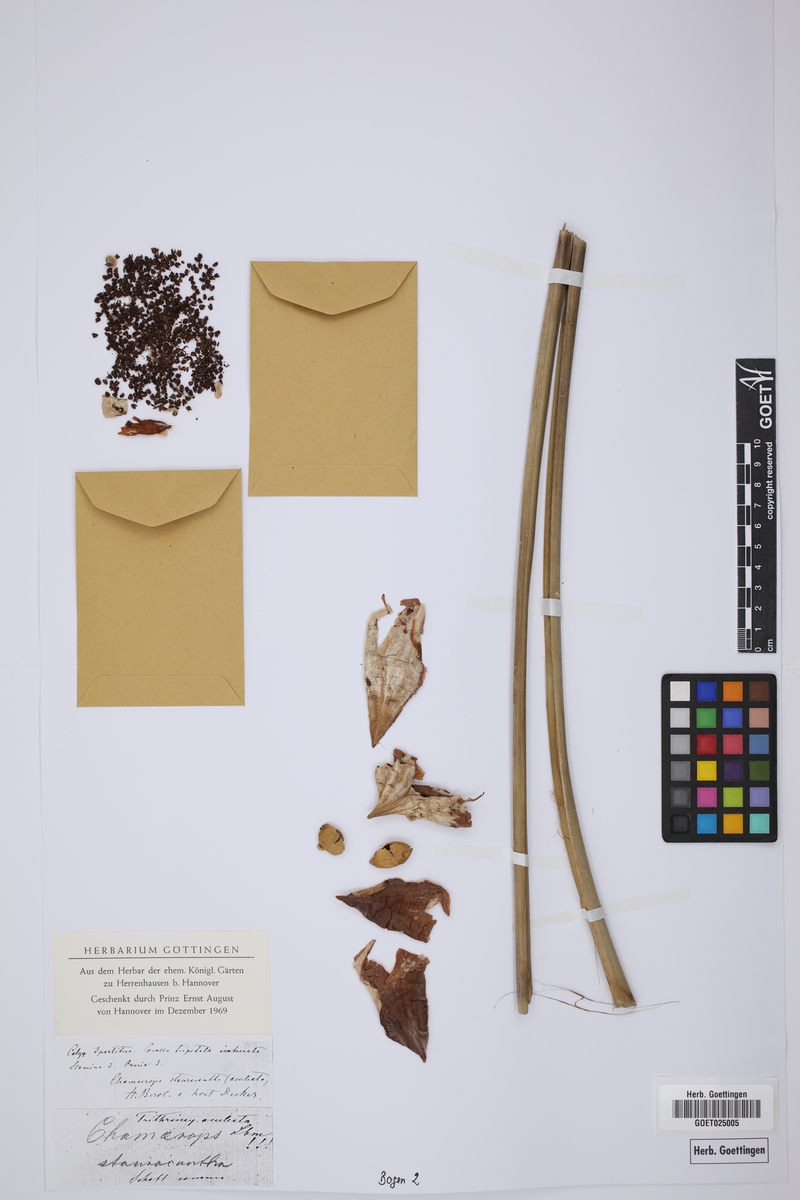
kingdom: Plantae
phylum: Tracheophyta
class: Liliopsida
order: Arecales
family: Arecaceae
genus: Cryosophila
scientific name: Cryosophila nana
